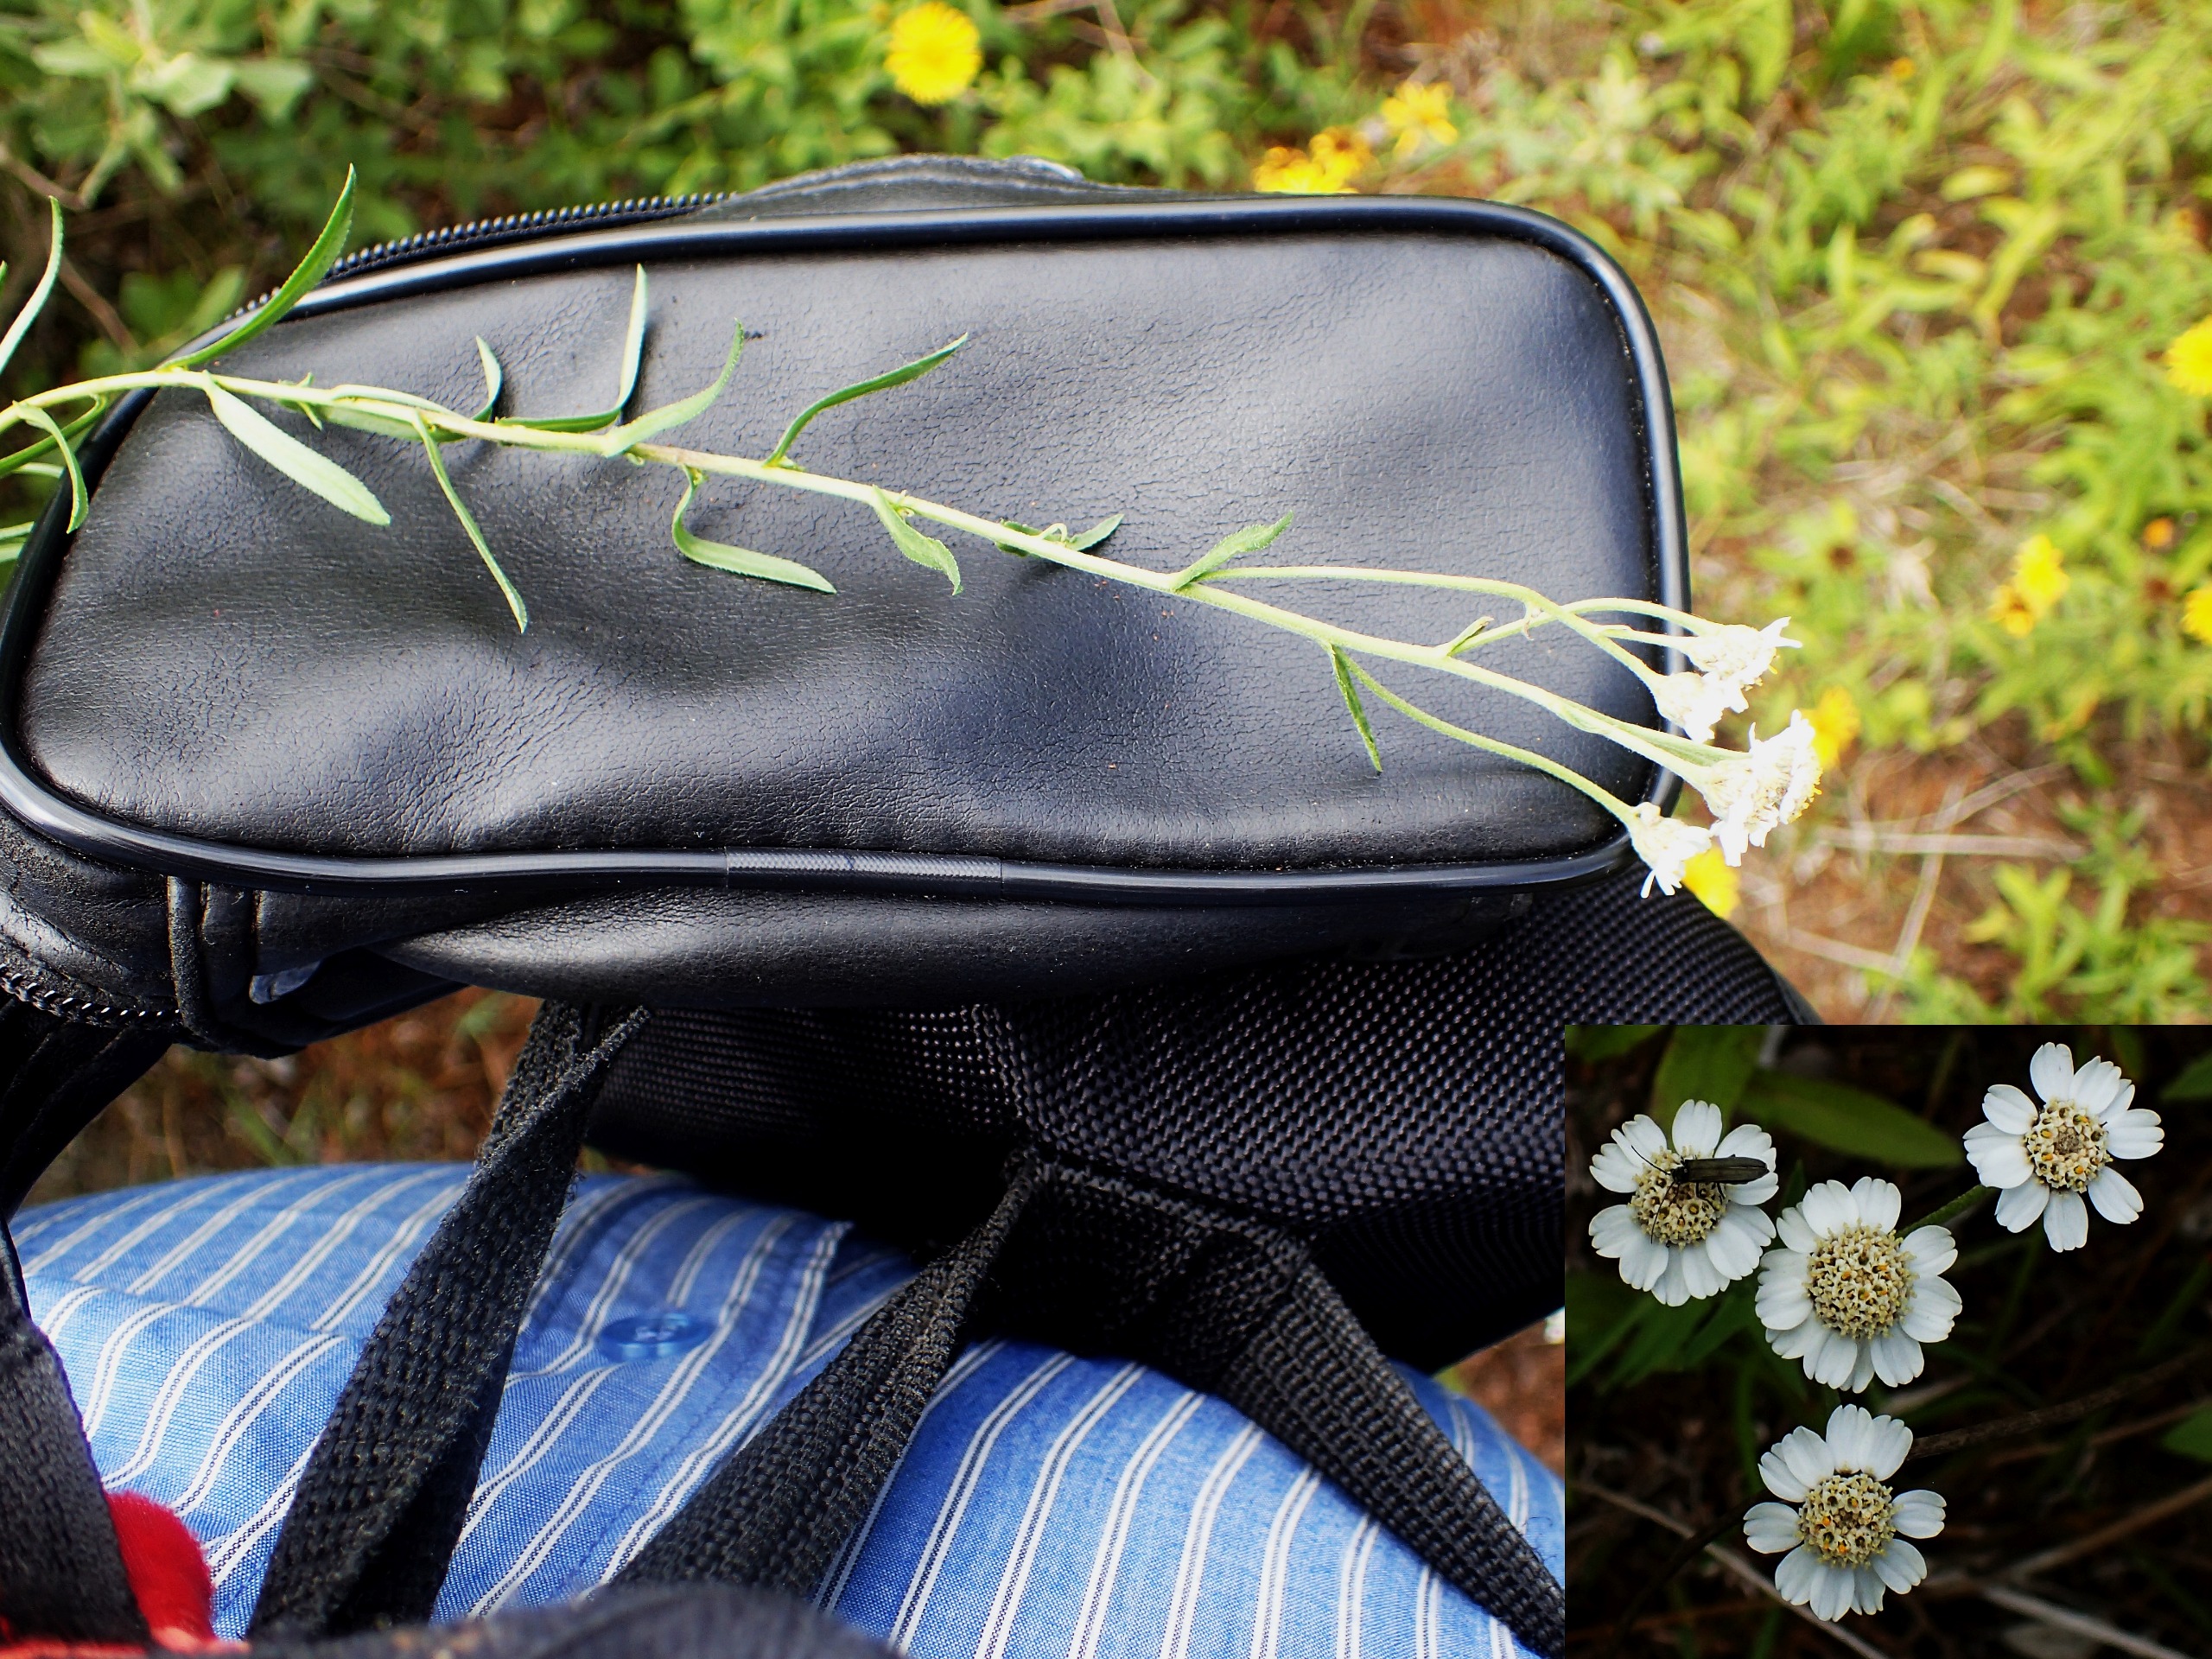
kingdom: Plantae
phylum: Tracheophyta
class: Magnoliopsida
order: Asterales
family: Asteraceae
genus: Achillea
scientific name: Achillea ptarmica
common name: Nyse-røllike
